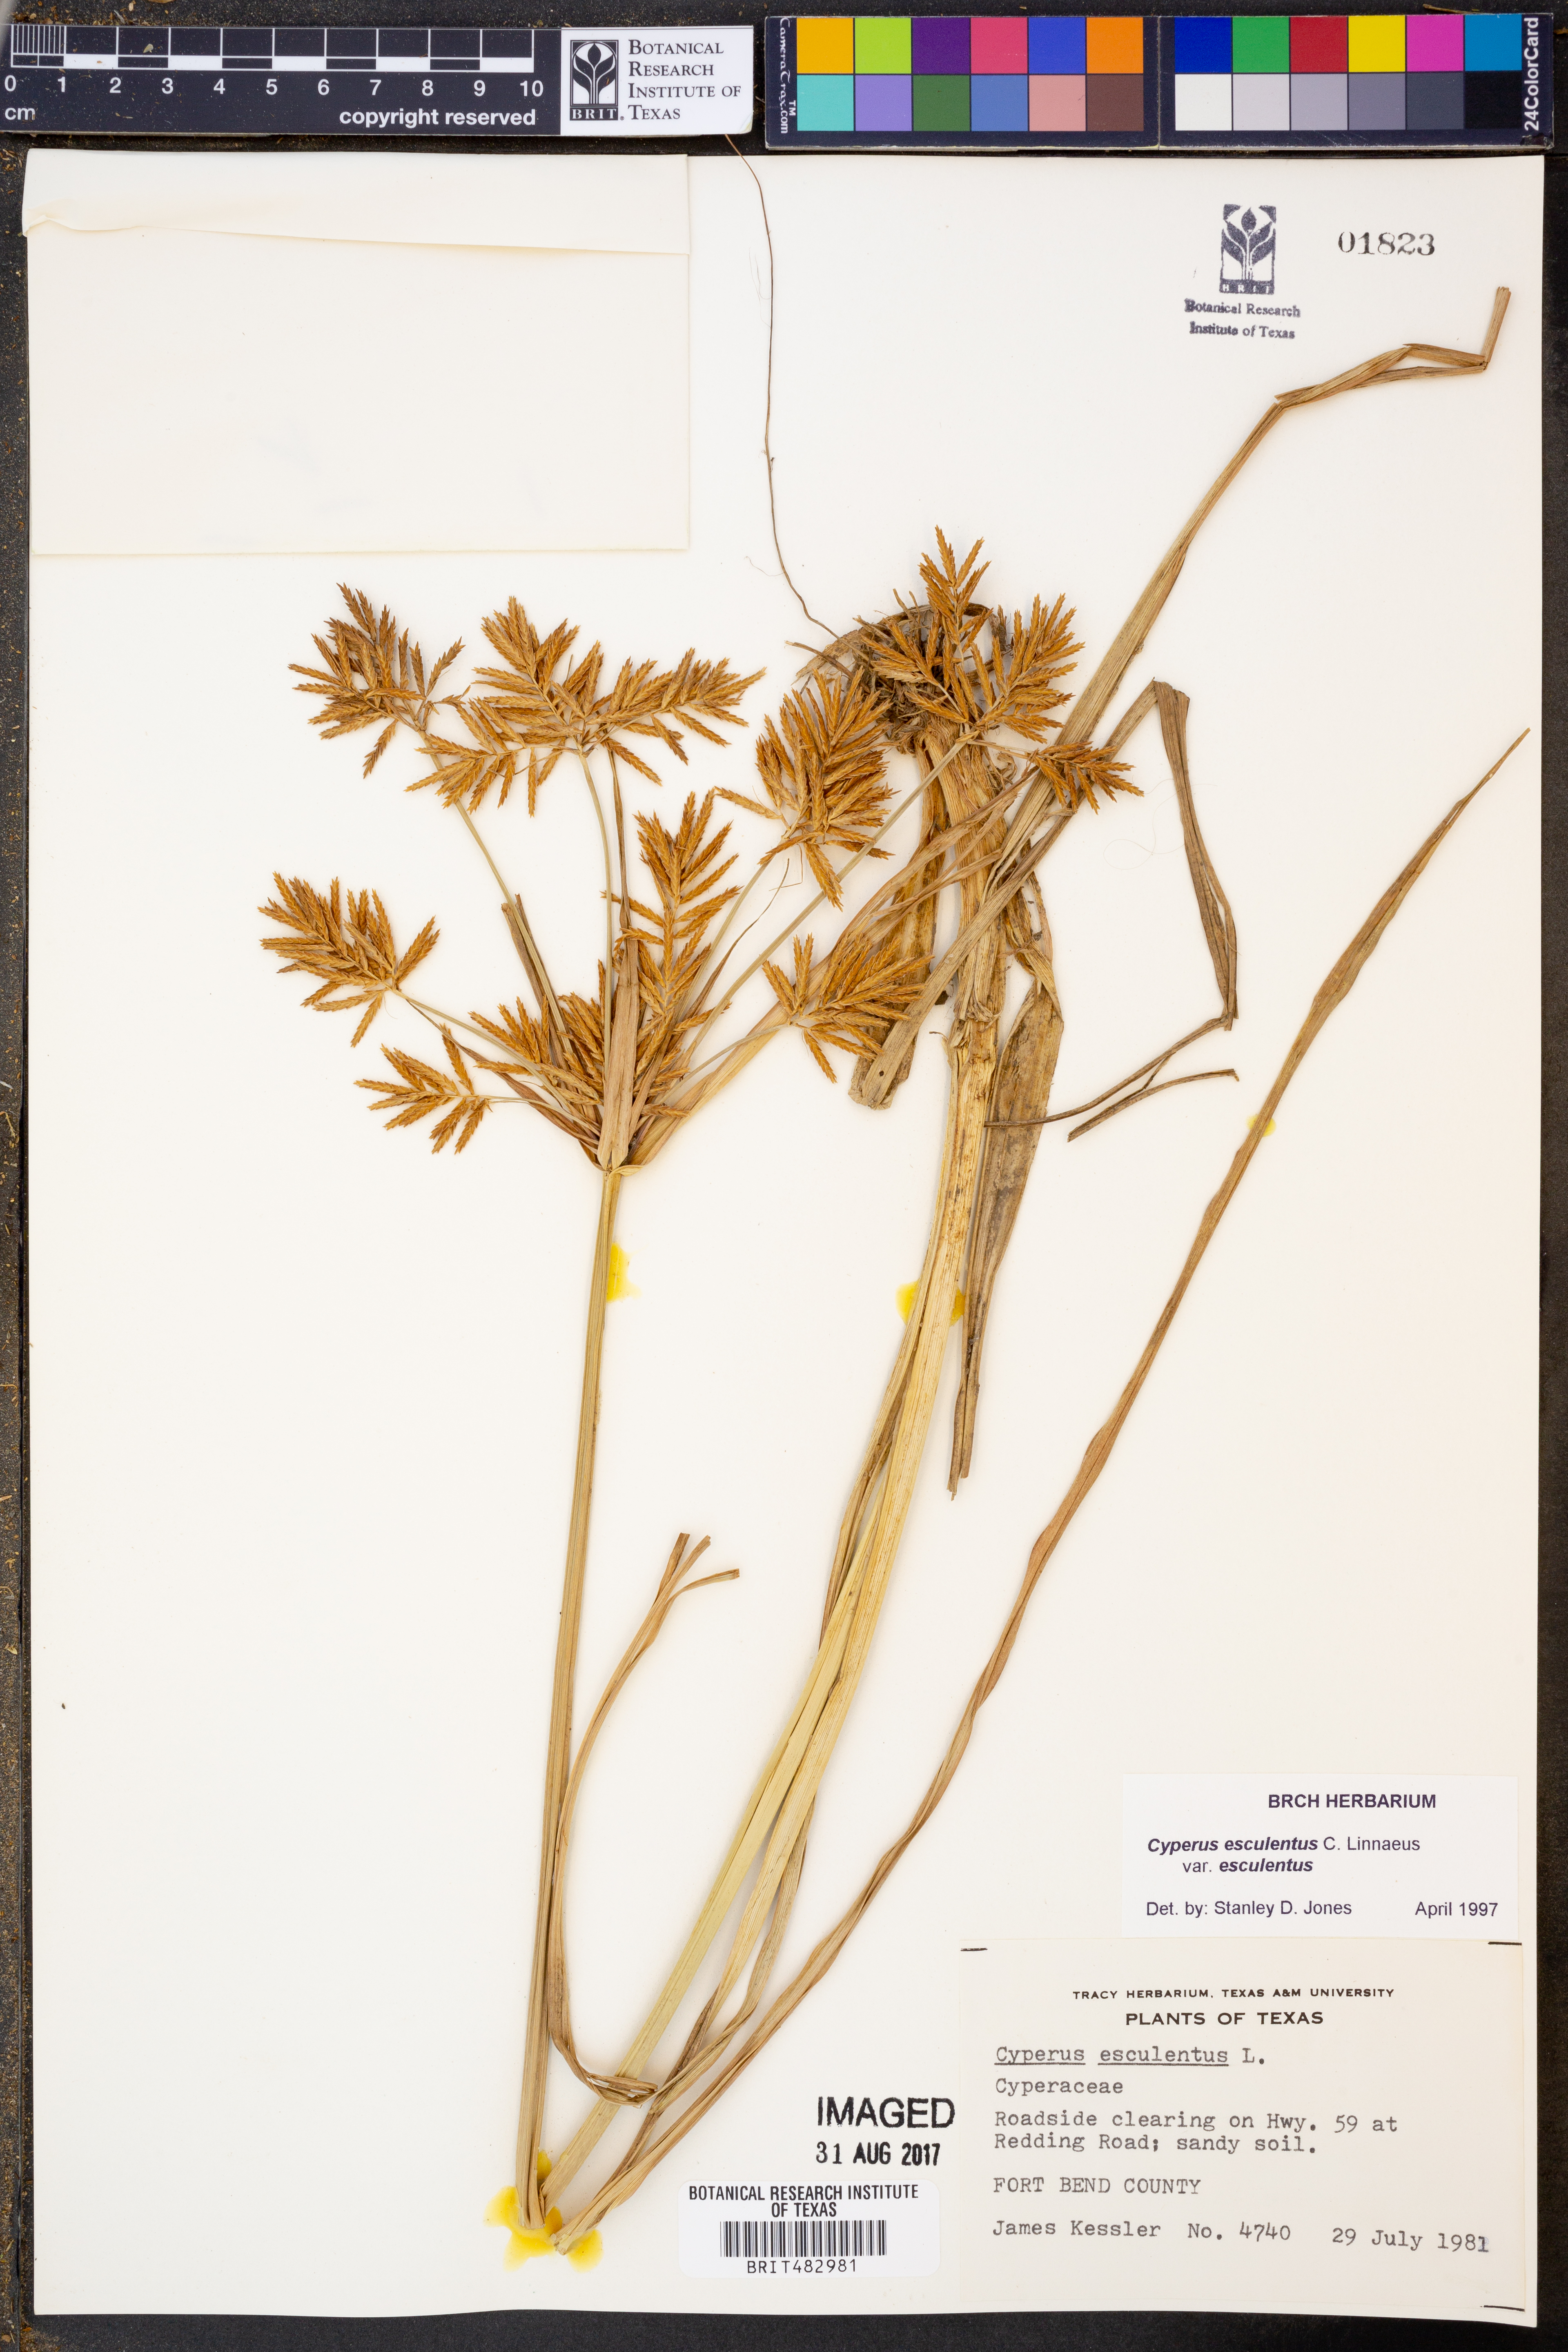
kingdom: Plantae
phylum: Tracheophyta
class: Liliopsida
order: Poales
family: Cyperaceae
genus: Cyperus
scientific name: Cyperus esculentus
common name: Yellow nutsedge
